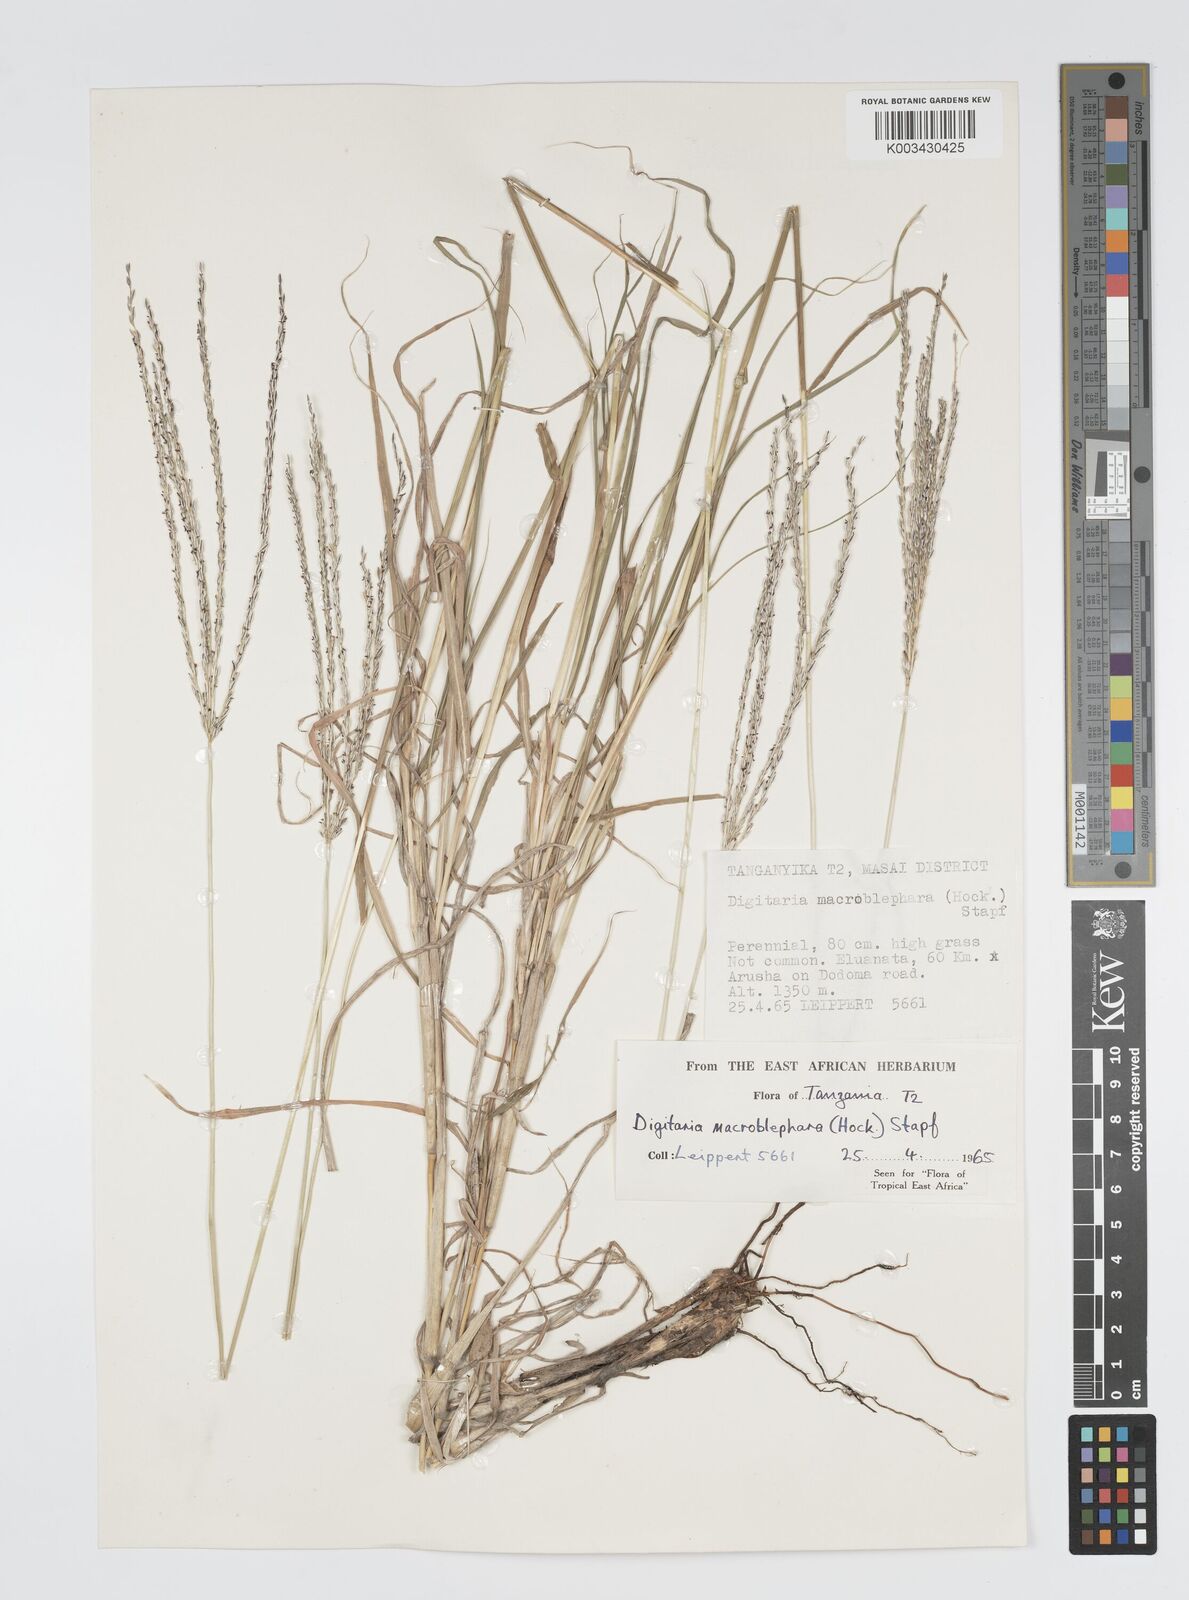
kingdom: Plantae
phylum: Tracheophyta
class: Liliopsida
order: Poales
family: Poaceae
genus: Digitaria
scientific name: Digitaria macroblephara
